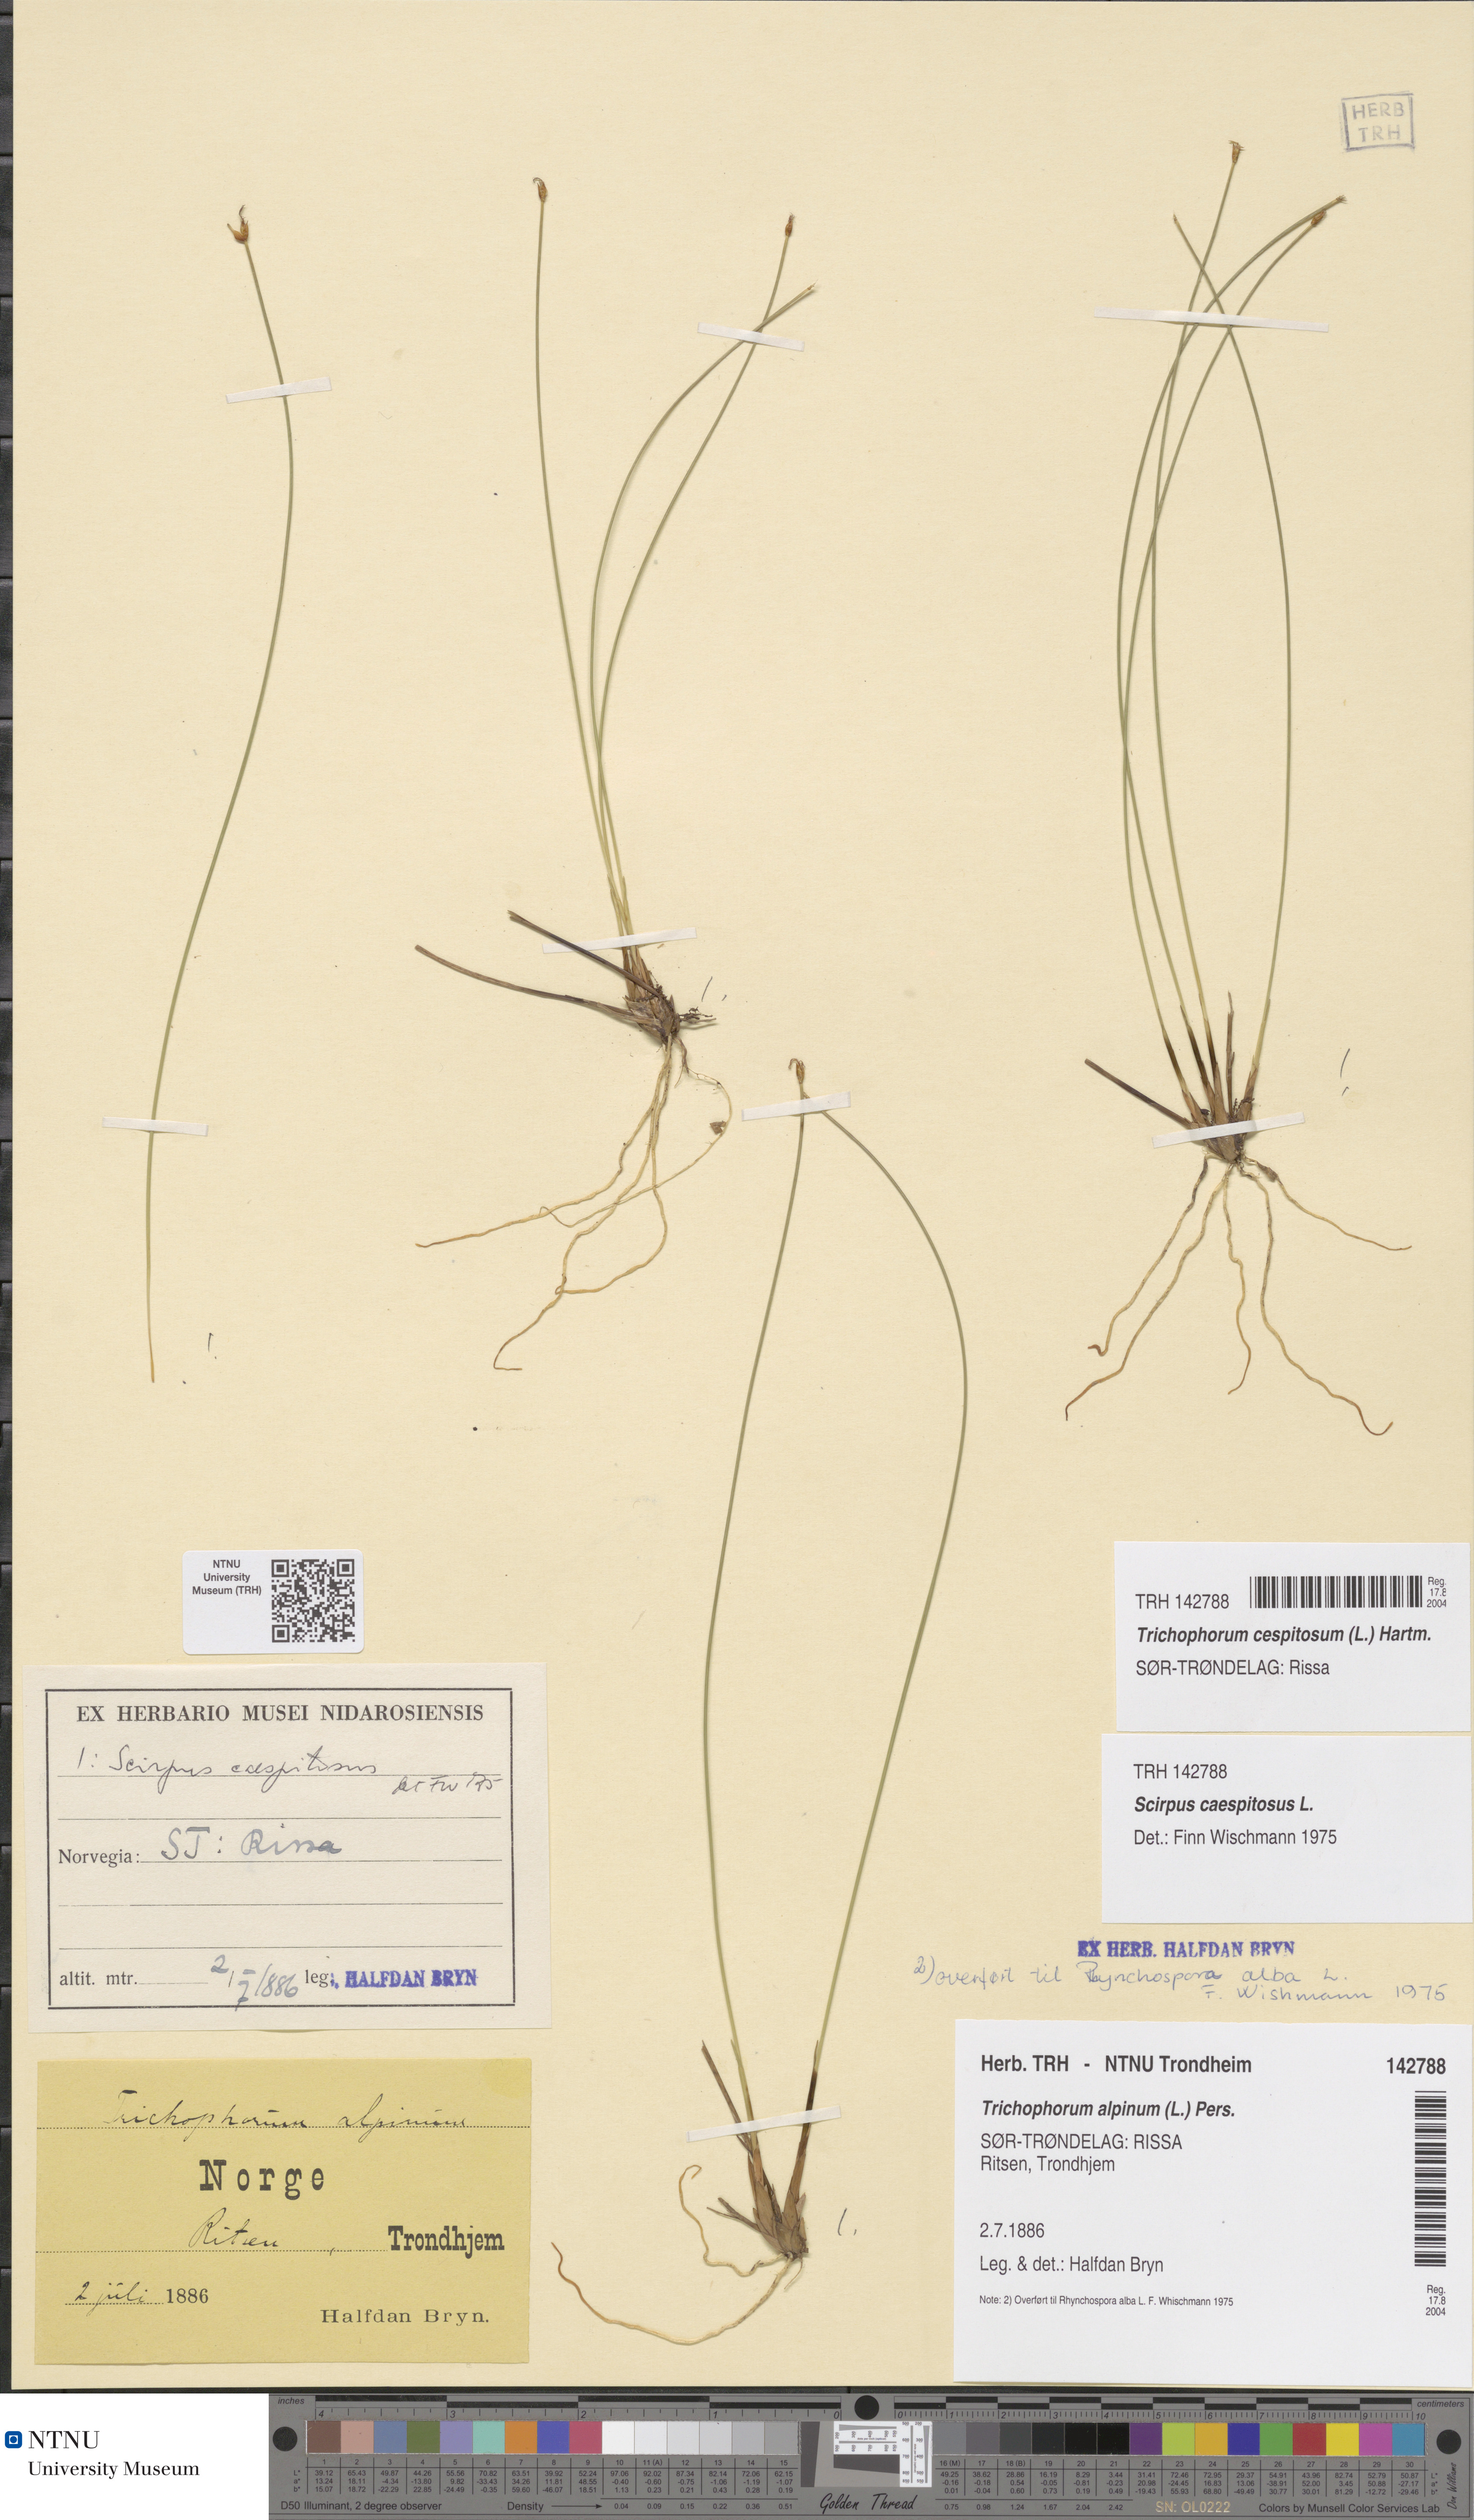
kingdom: Plantae
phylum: Tracheophyta
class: Liliopsida
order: Poales
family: Cyperaceae
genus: Trichophorum
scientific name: Trichophorum cespitosum
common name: Cespitose bulrush
